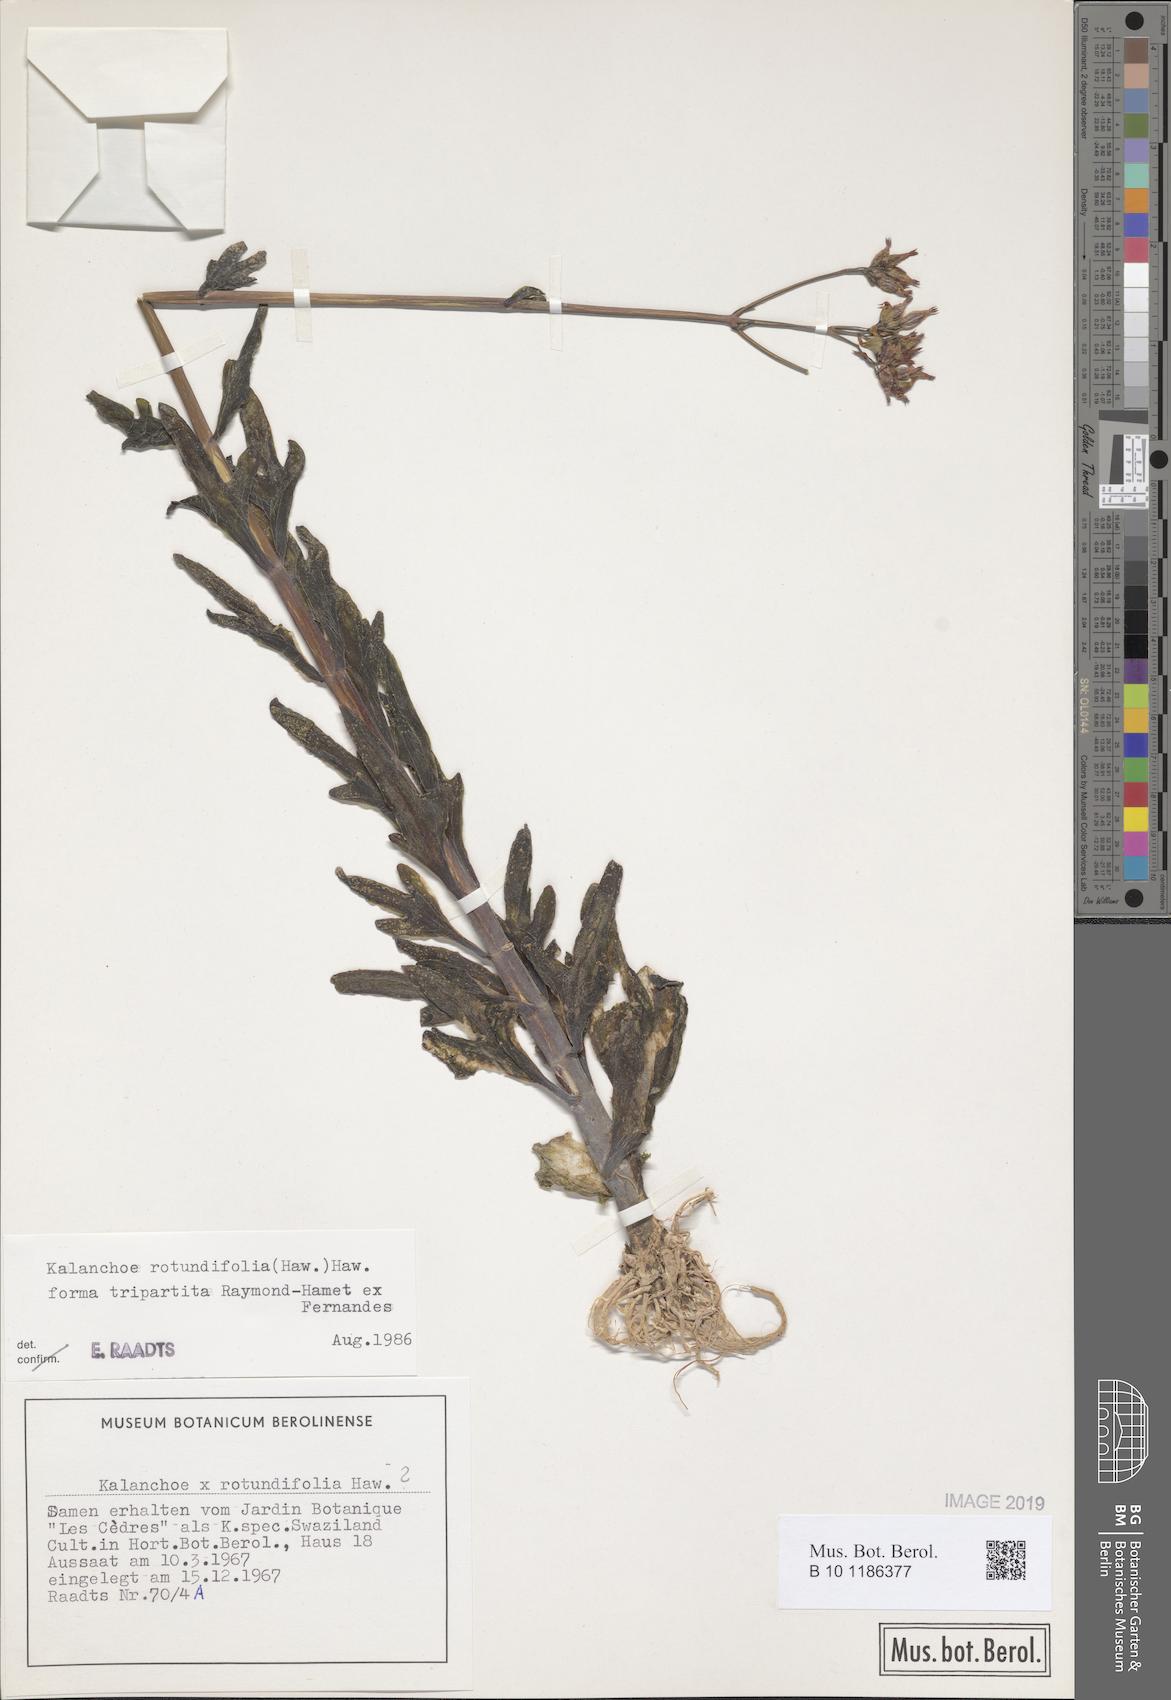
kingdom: Plantae
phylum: Tracheophyta
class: Magnoliopsida
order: Saxifragales
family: Crassulaceae
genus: Kalanchoe
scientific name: Kalanchoe rotundifolia
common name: Common kalanchoe
